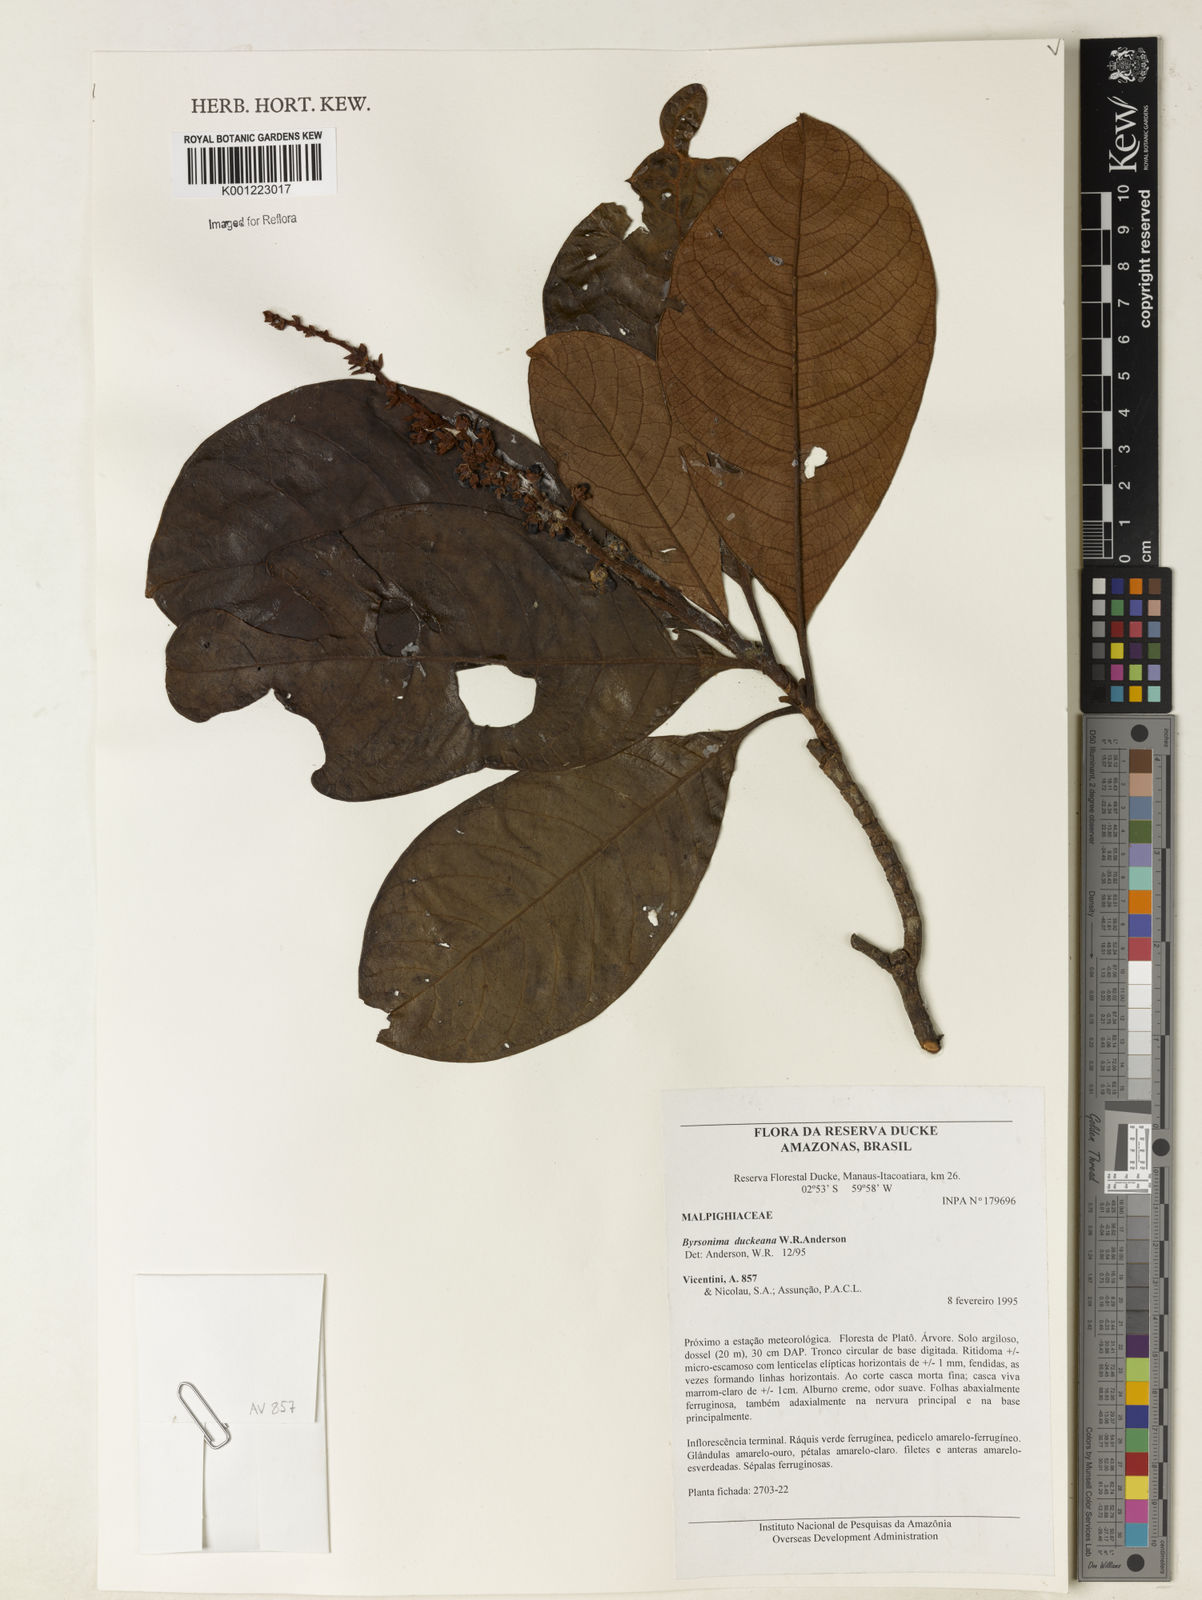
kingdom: Plantae
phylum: Tracheophyta
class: Magnoliopsida
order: Malpighiales
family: Malpighiaceae
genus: Byrsonima
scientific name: Byrsonima duckeana
